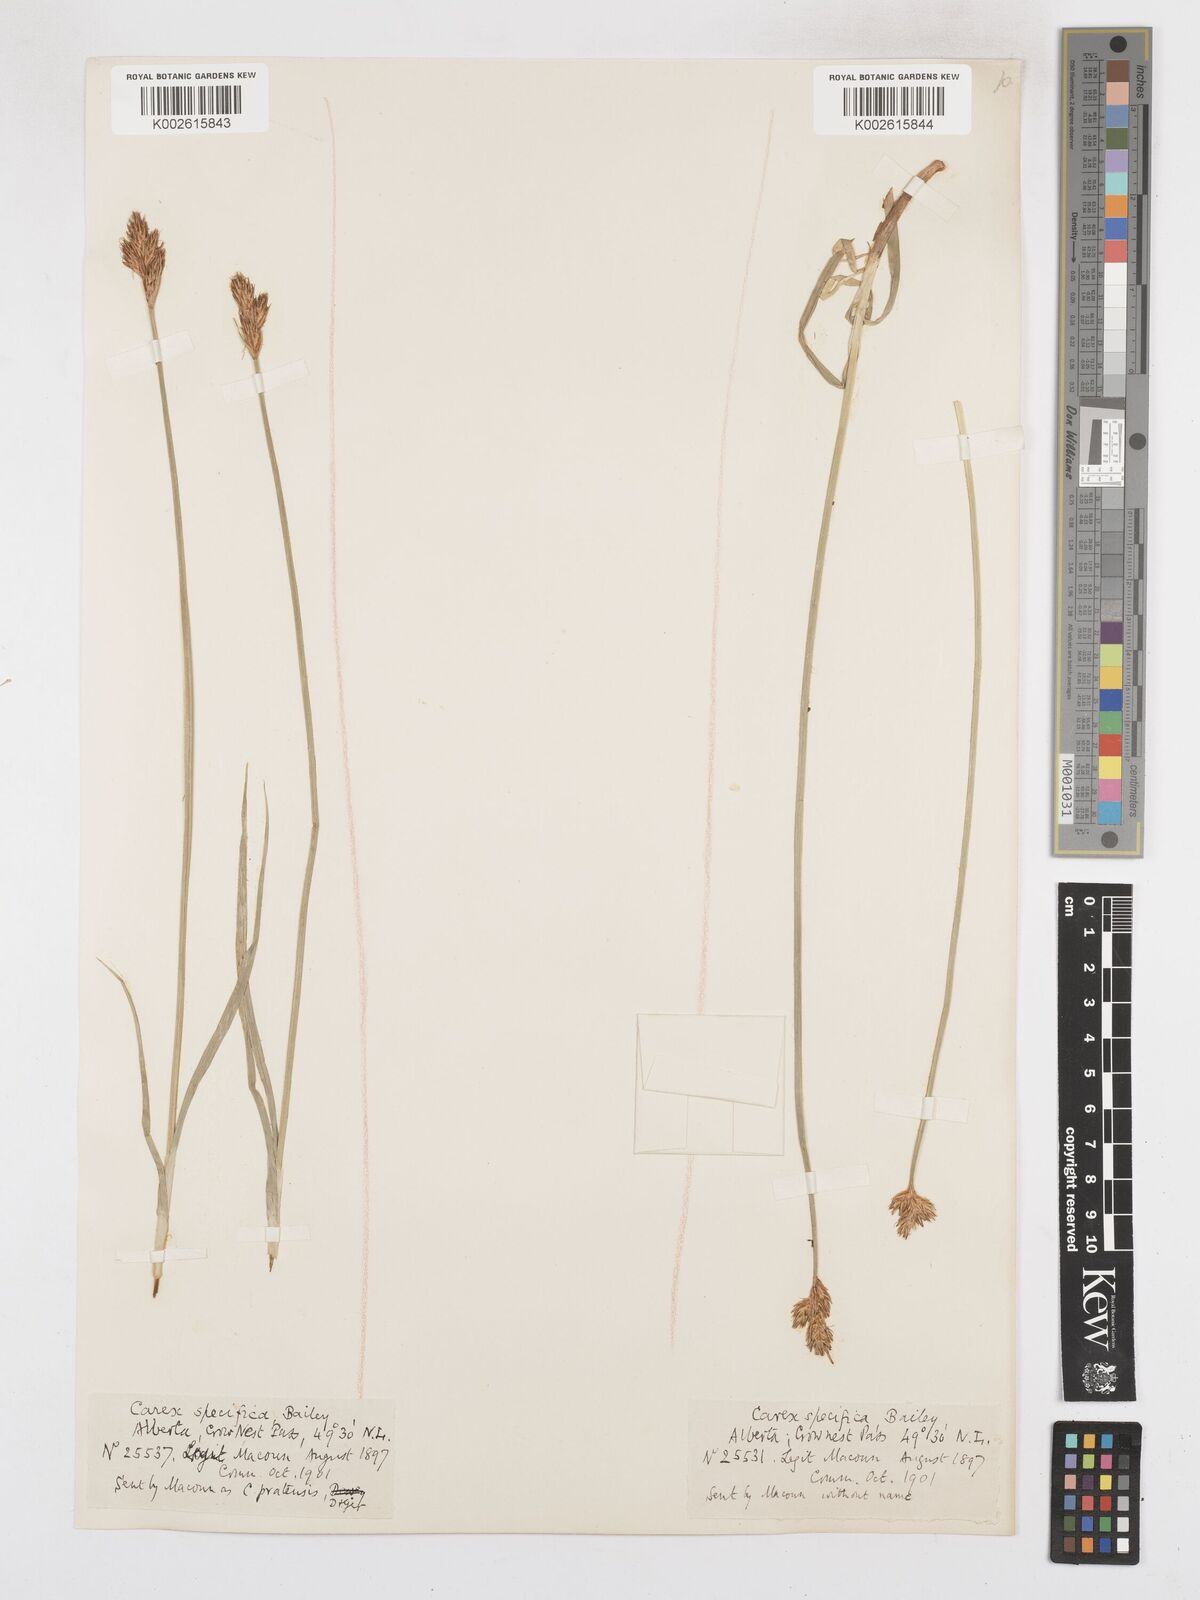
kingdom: Plantae
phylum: Tracheophyta
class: Liliopsida
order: Poales
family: Cyperaceae
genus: Carex
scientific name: Carex specifica
